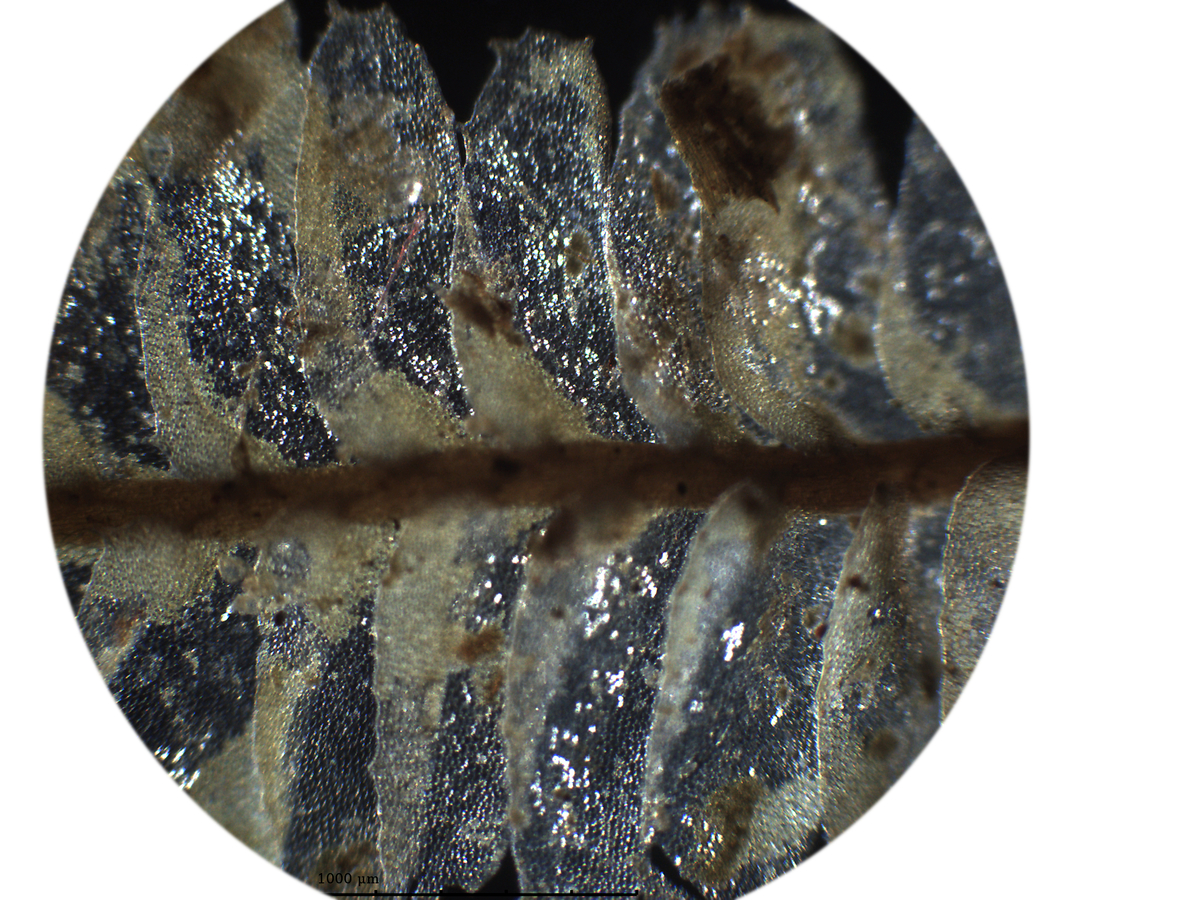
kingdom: Plantae
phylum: Marchantiophyta
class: Jungermanniopsida
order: Jungermanniales
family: Plagiochilaceae
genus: Plagiochila
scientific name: Plagiochila repanda
